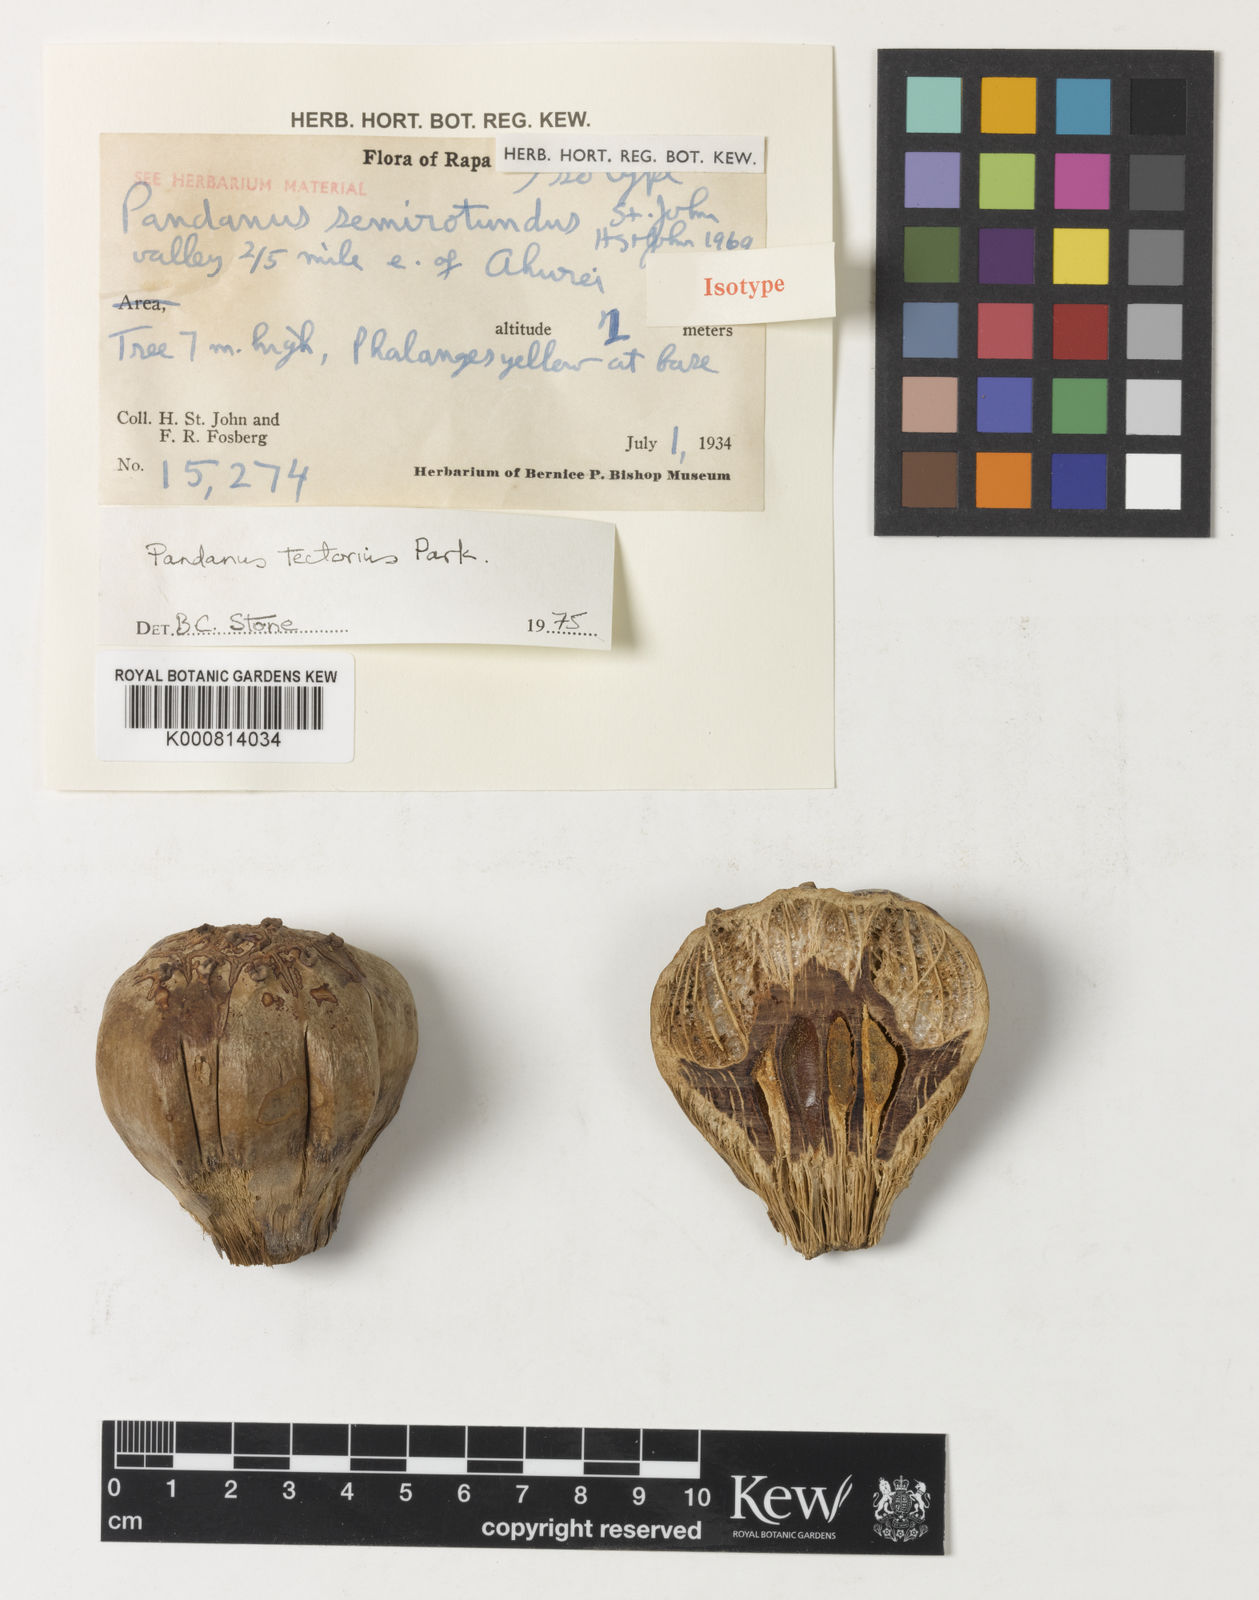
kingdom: Plantae
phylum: Tracheophyta
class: Liliopsida
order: Pandanales
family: Pandanaceae
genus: Pandanus
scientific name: Pandanus
